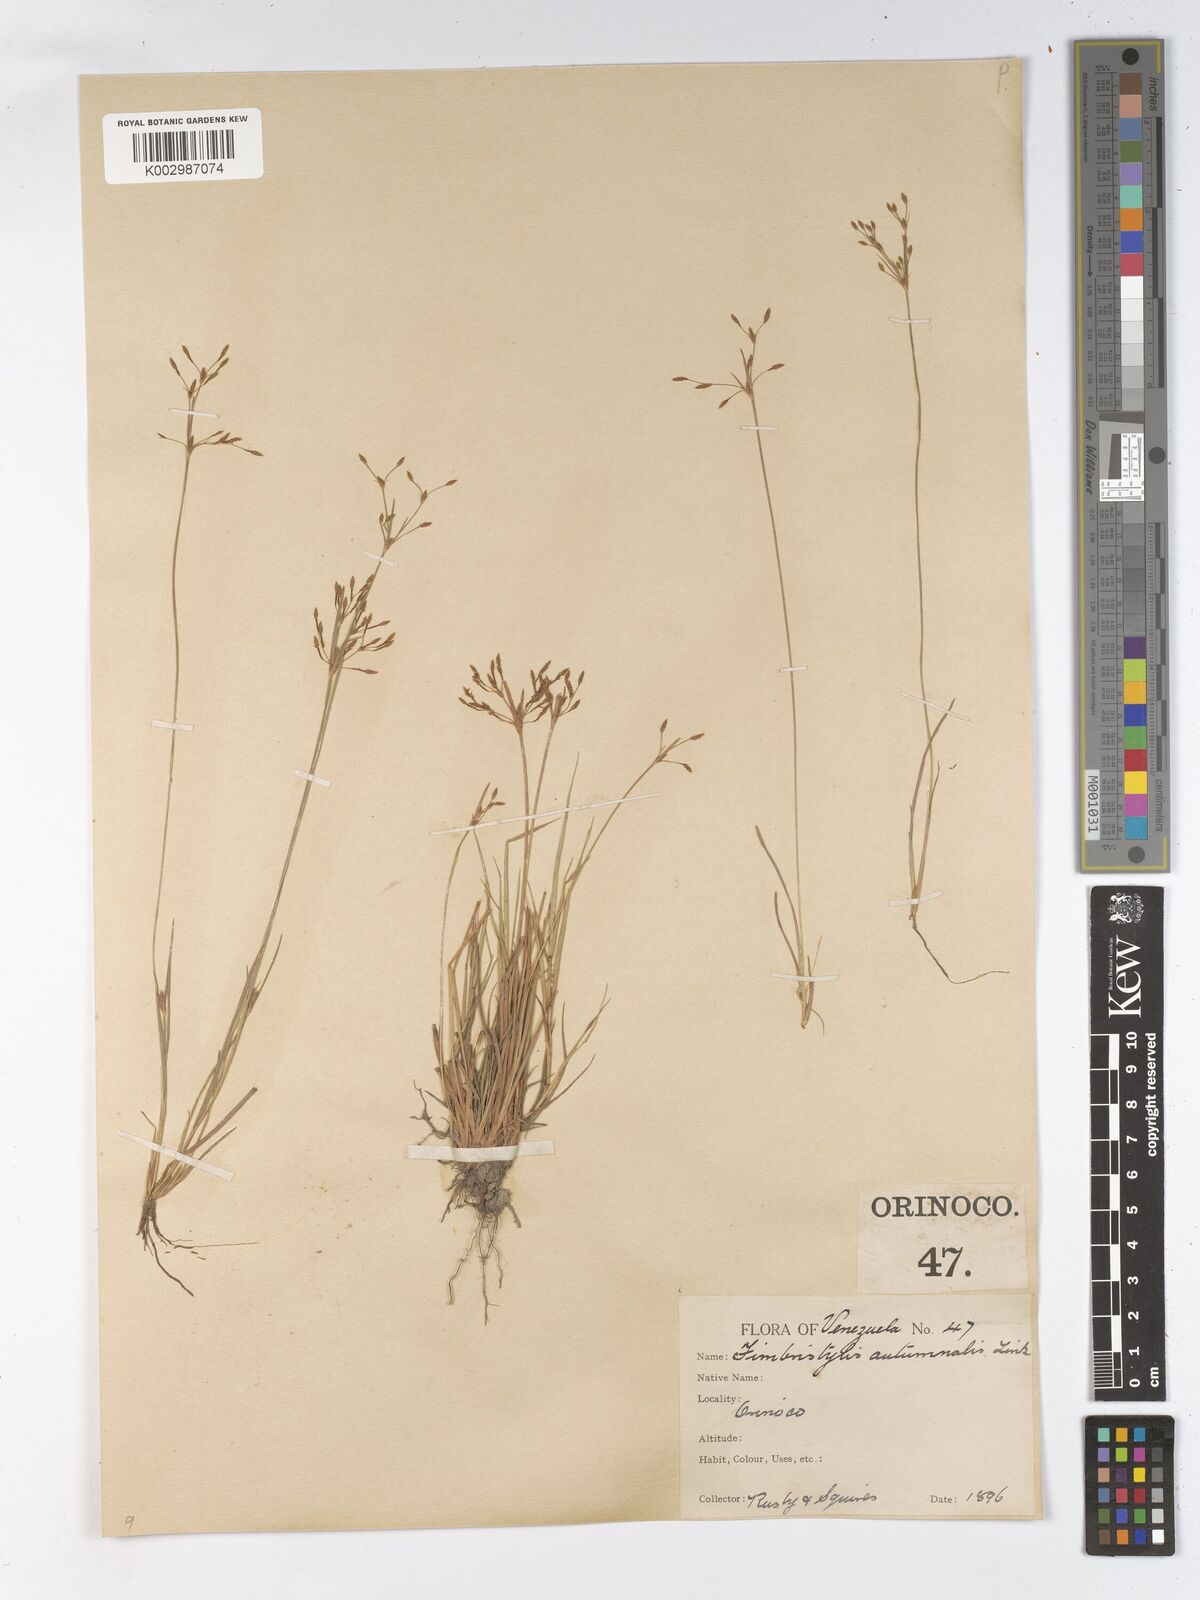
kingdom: Plantae
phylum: Tracheophyta
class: Liliopsida
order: Poales
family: Cyperaceae
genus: Fimbristylis
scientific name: Fimbristylis autumnalis
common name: Slender fimbristylis
